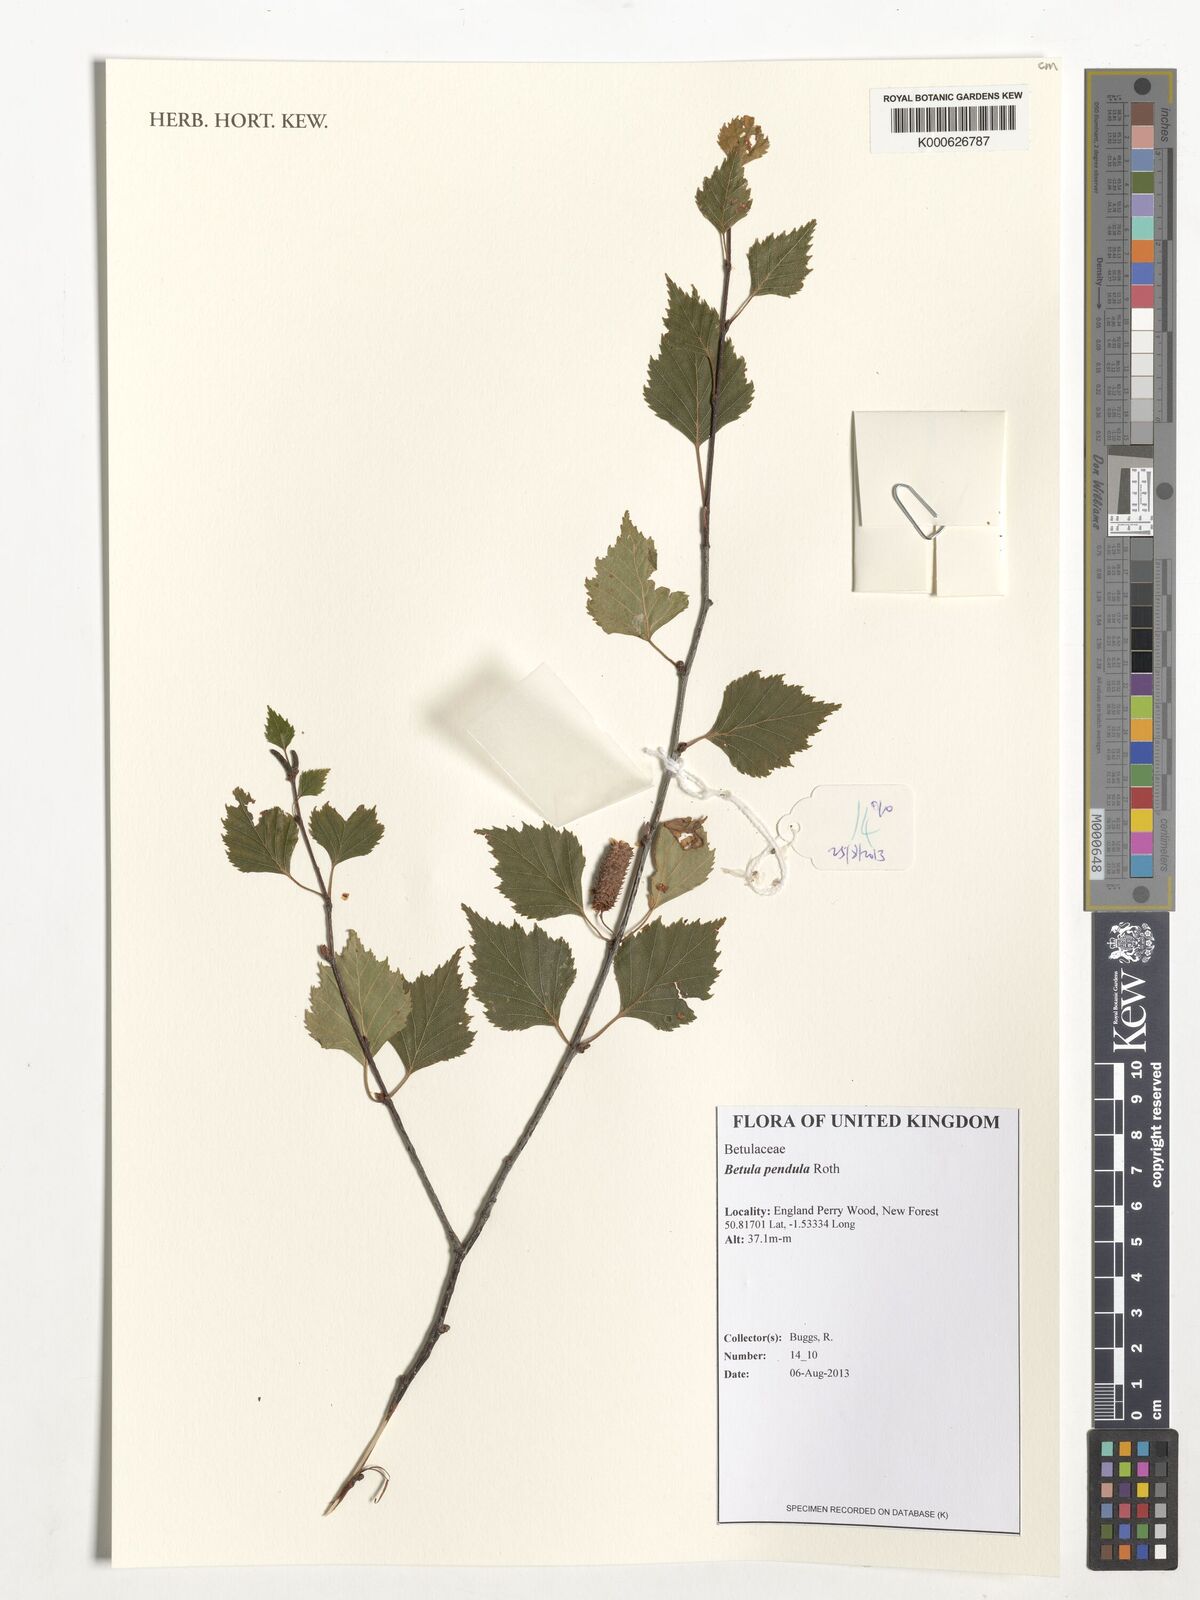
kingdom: Plantae
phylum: Tracheophyta
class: Magnoliopsida
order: Fagales
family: Betulaceae
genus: Betula
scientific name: Betula pendula
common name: Silver birch
